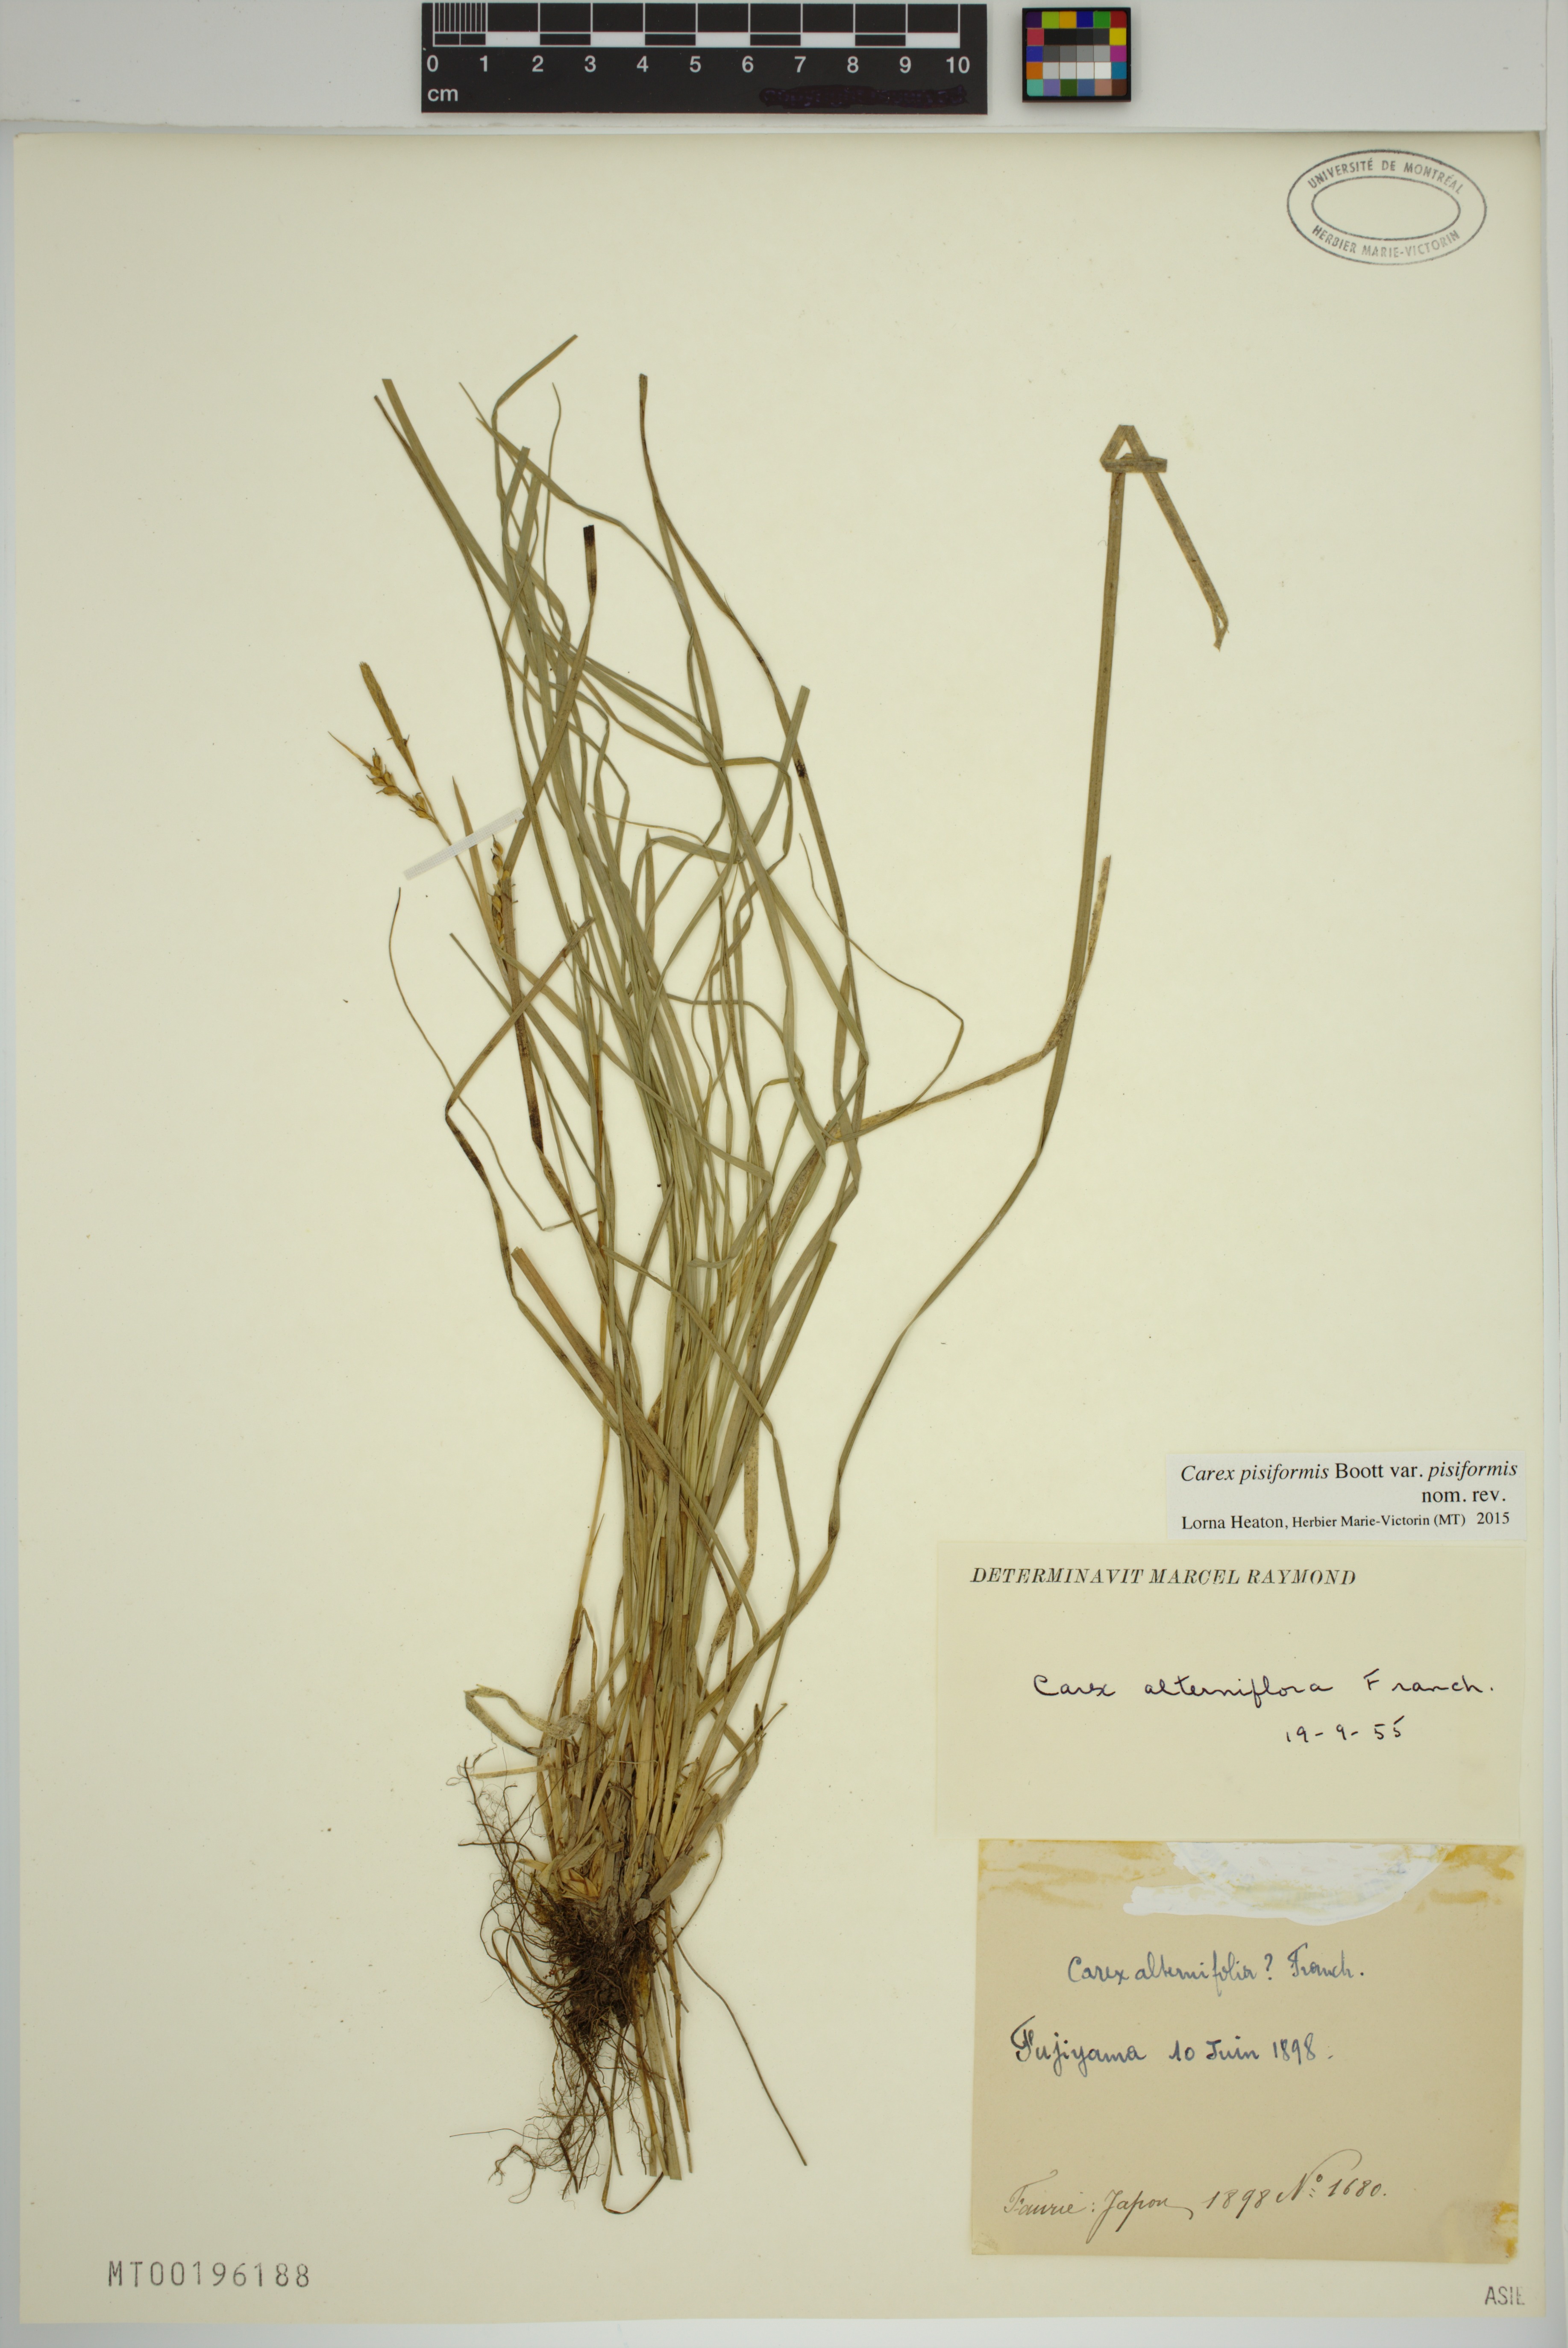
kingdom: Plantae
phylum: Tracheophyta
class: Liliopsida
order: Poales
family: Cyperaceae
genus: Carex
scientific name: Carex pisiformis
